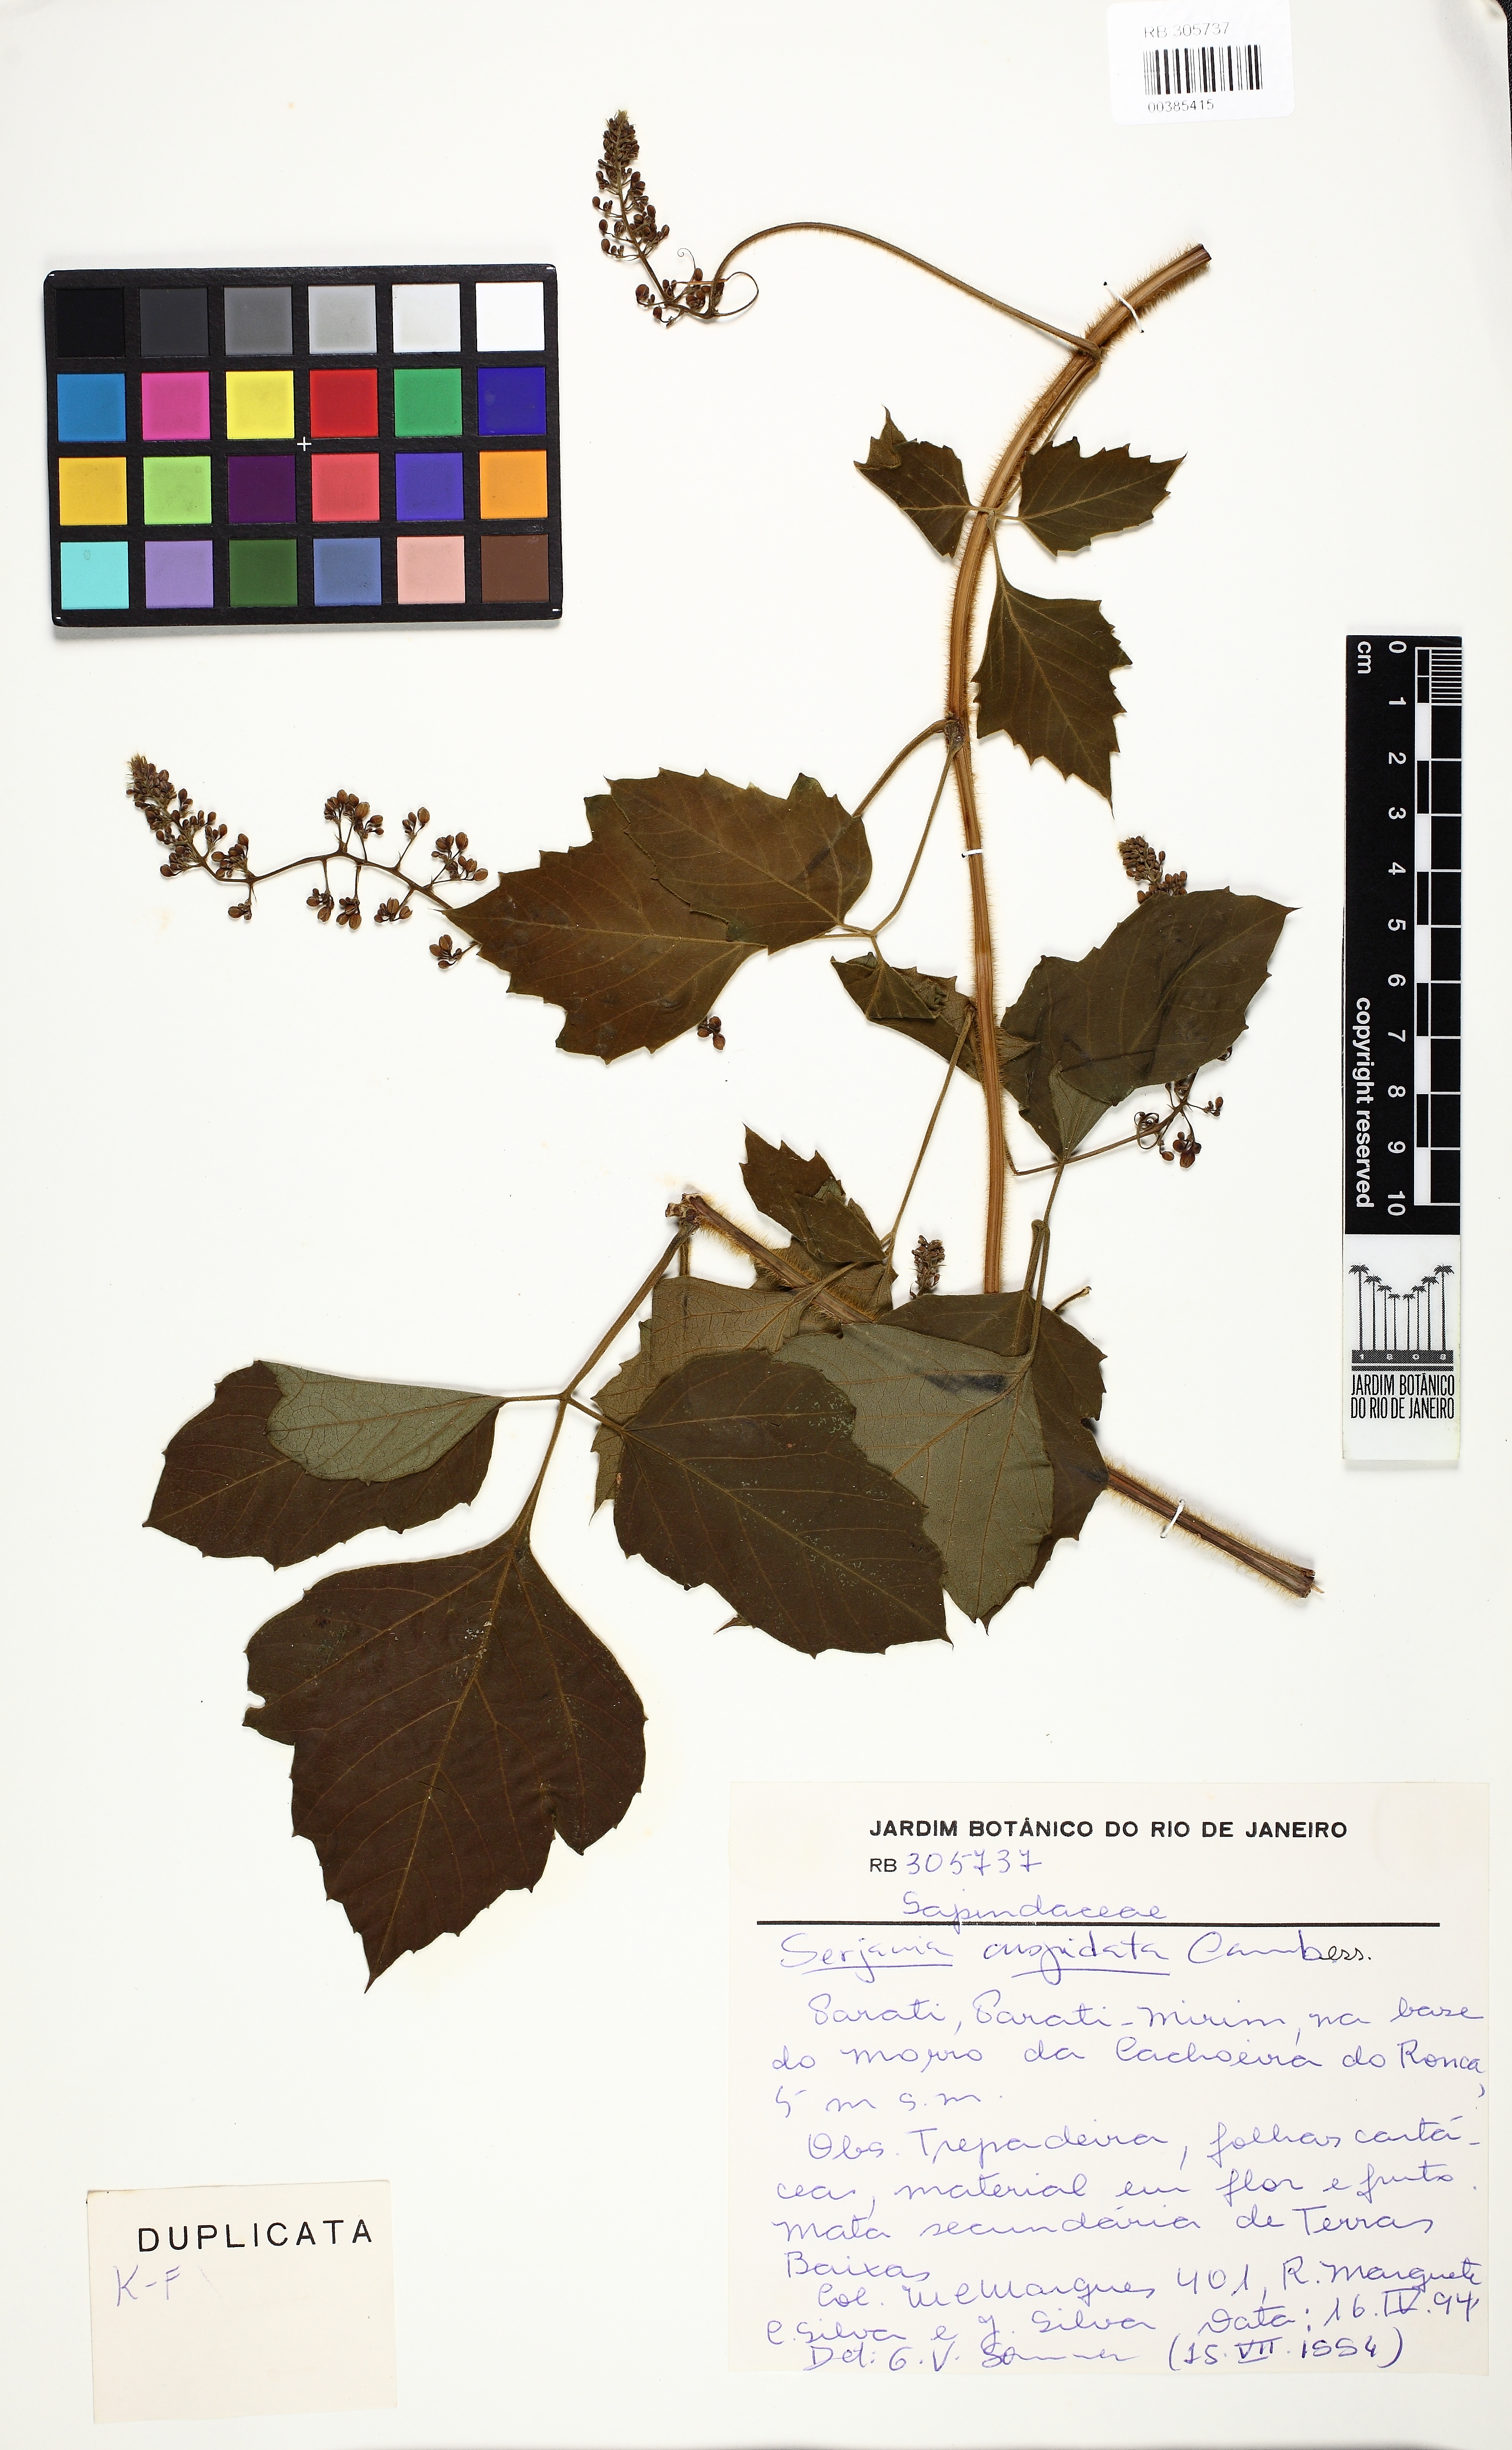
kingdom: Plantae
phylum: Tracheophyta
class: Magnoliopsida
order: Sapindales
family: Sapindaceae
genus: Serjania
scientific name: Serjania ferruginea
